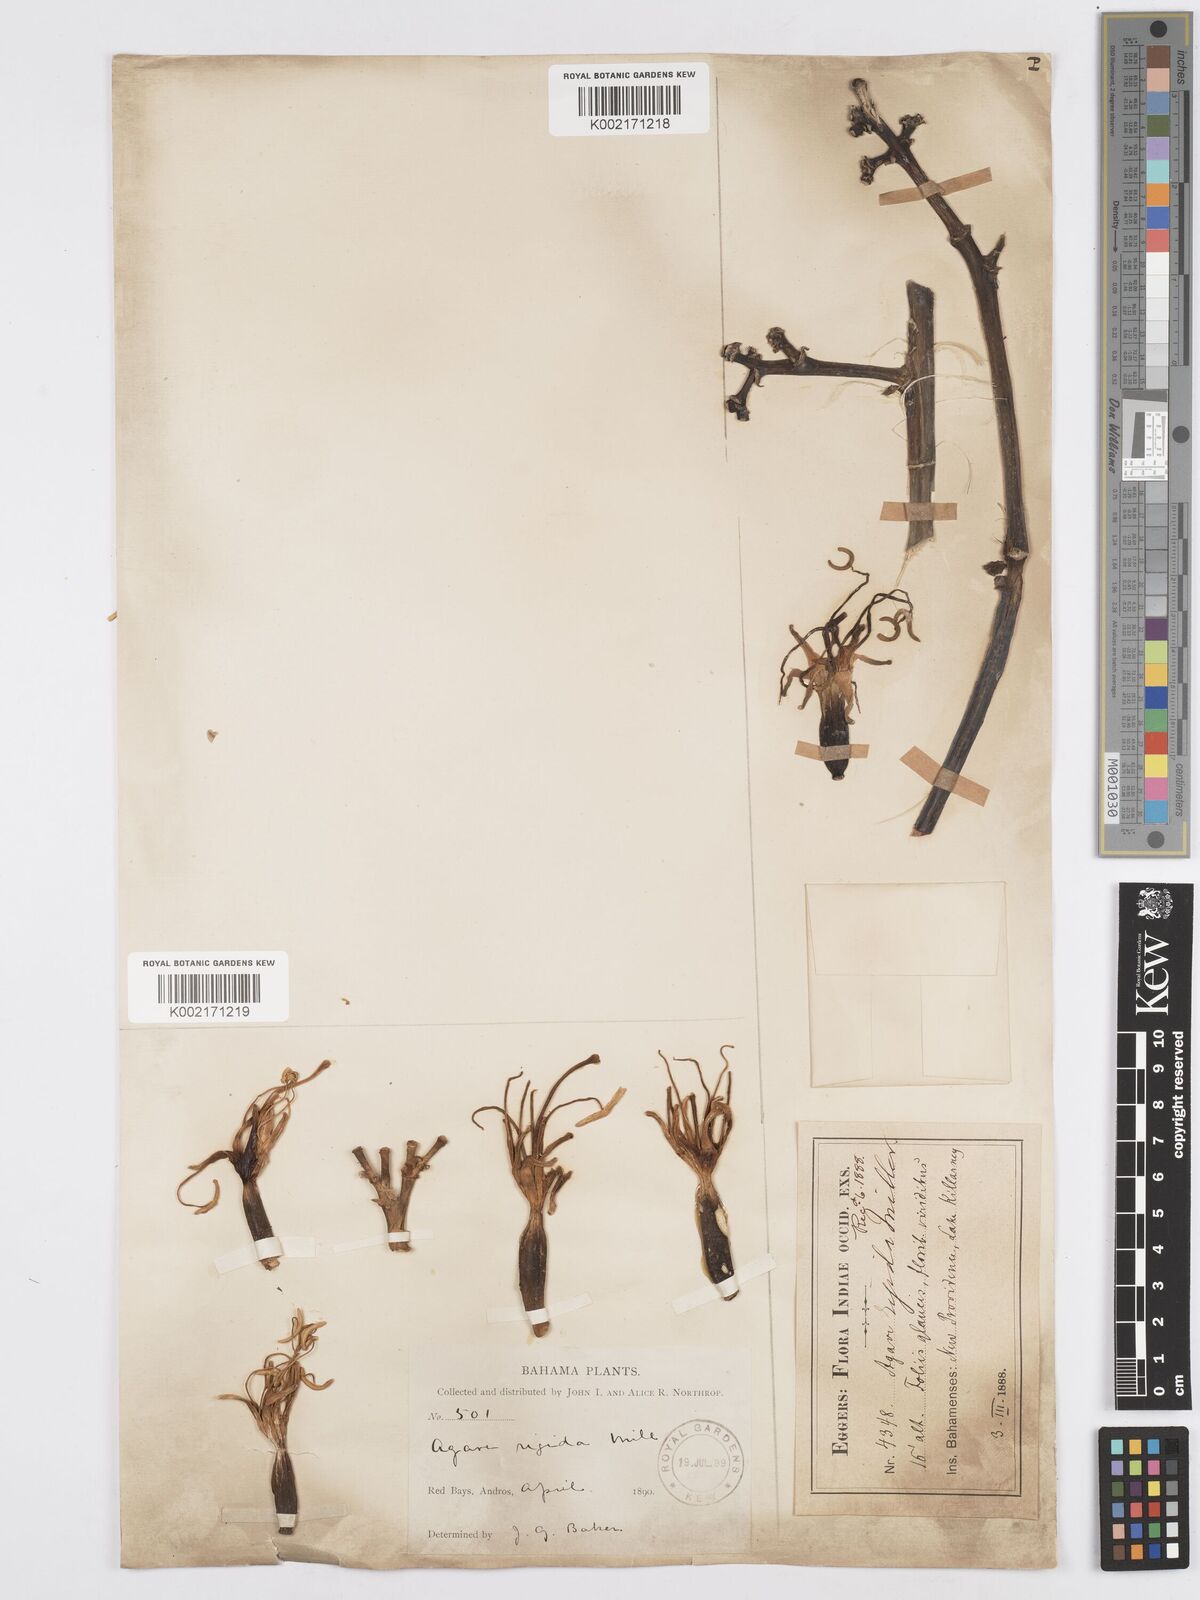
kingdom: Plantae
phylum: Tracheophyta
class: Liliopsida
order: Asparagales
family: Asparagaceae
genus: Agave
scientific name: Agave angustifolia
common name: Mescal agave
